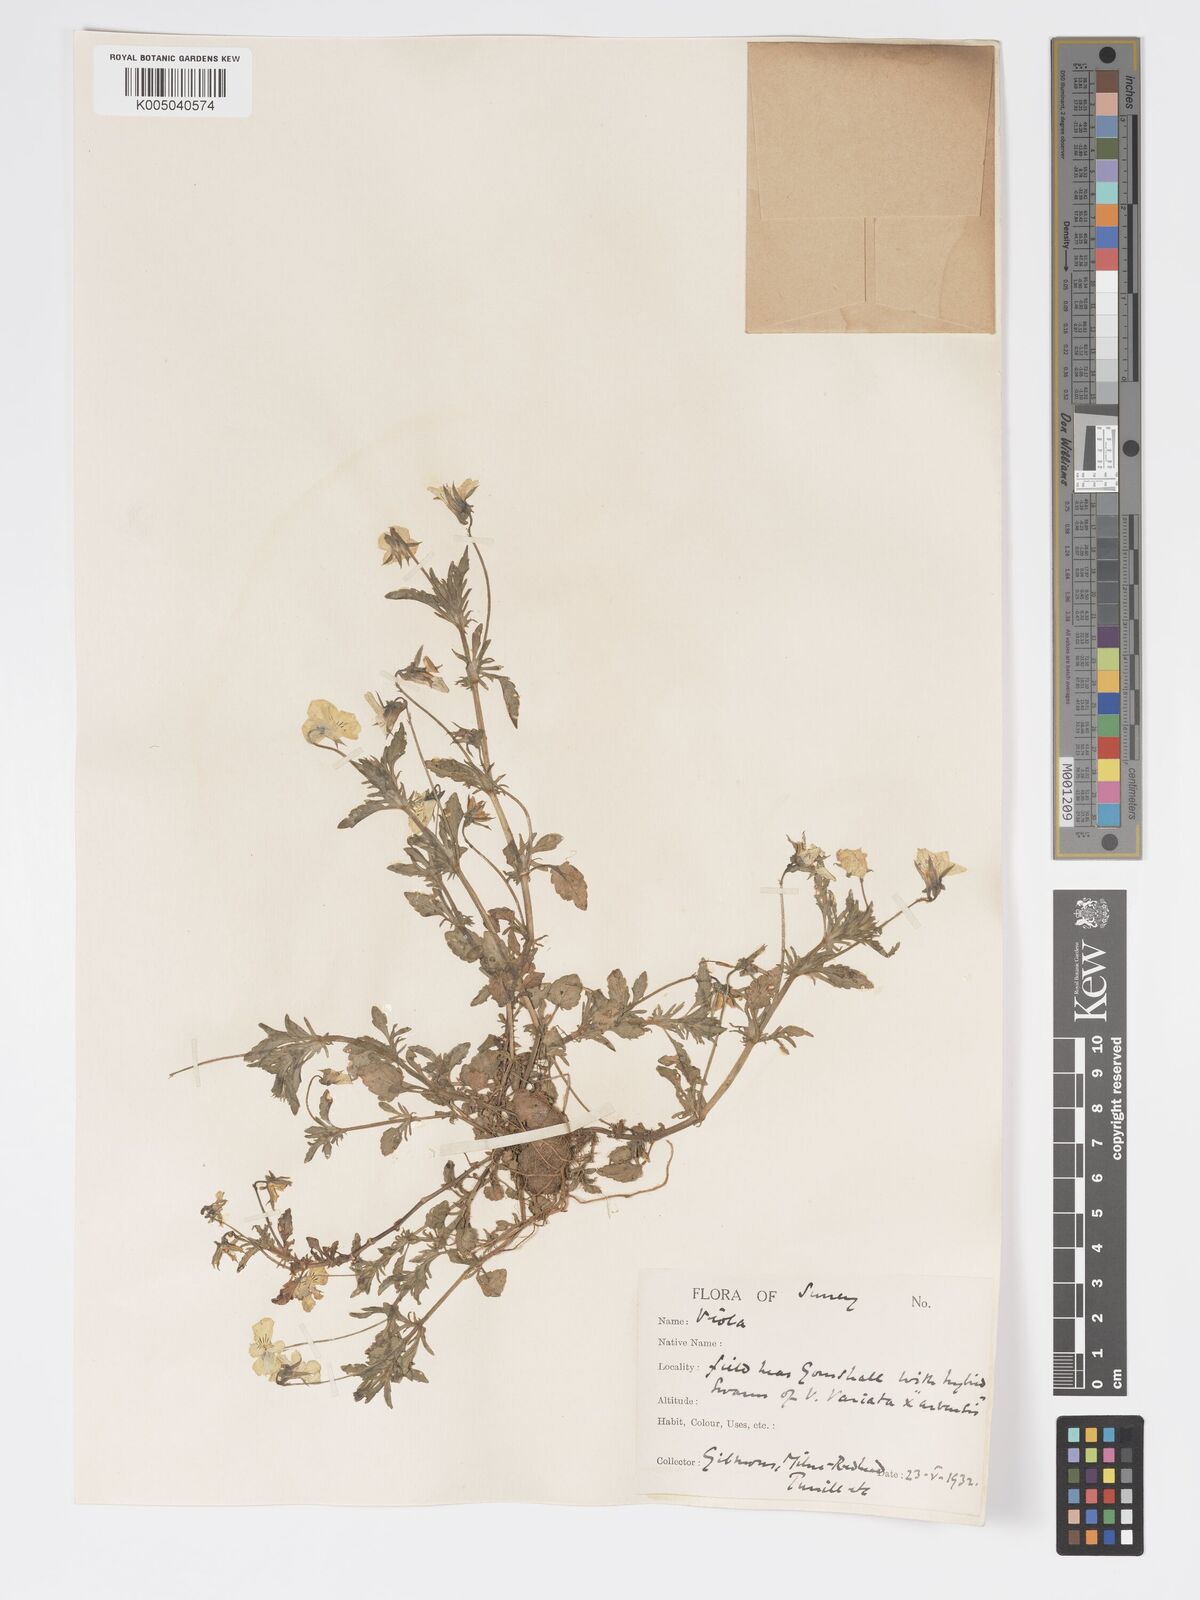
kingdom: Plantae
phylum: Tracheophyta
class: Magnoliopsida
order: Malpighiales
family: Violaceae
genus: Viola
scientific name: Viola
